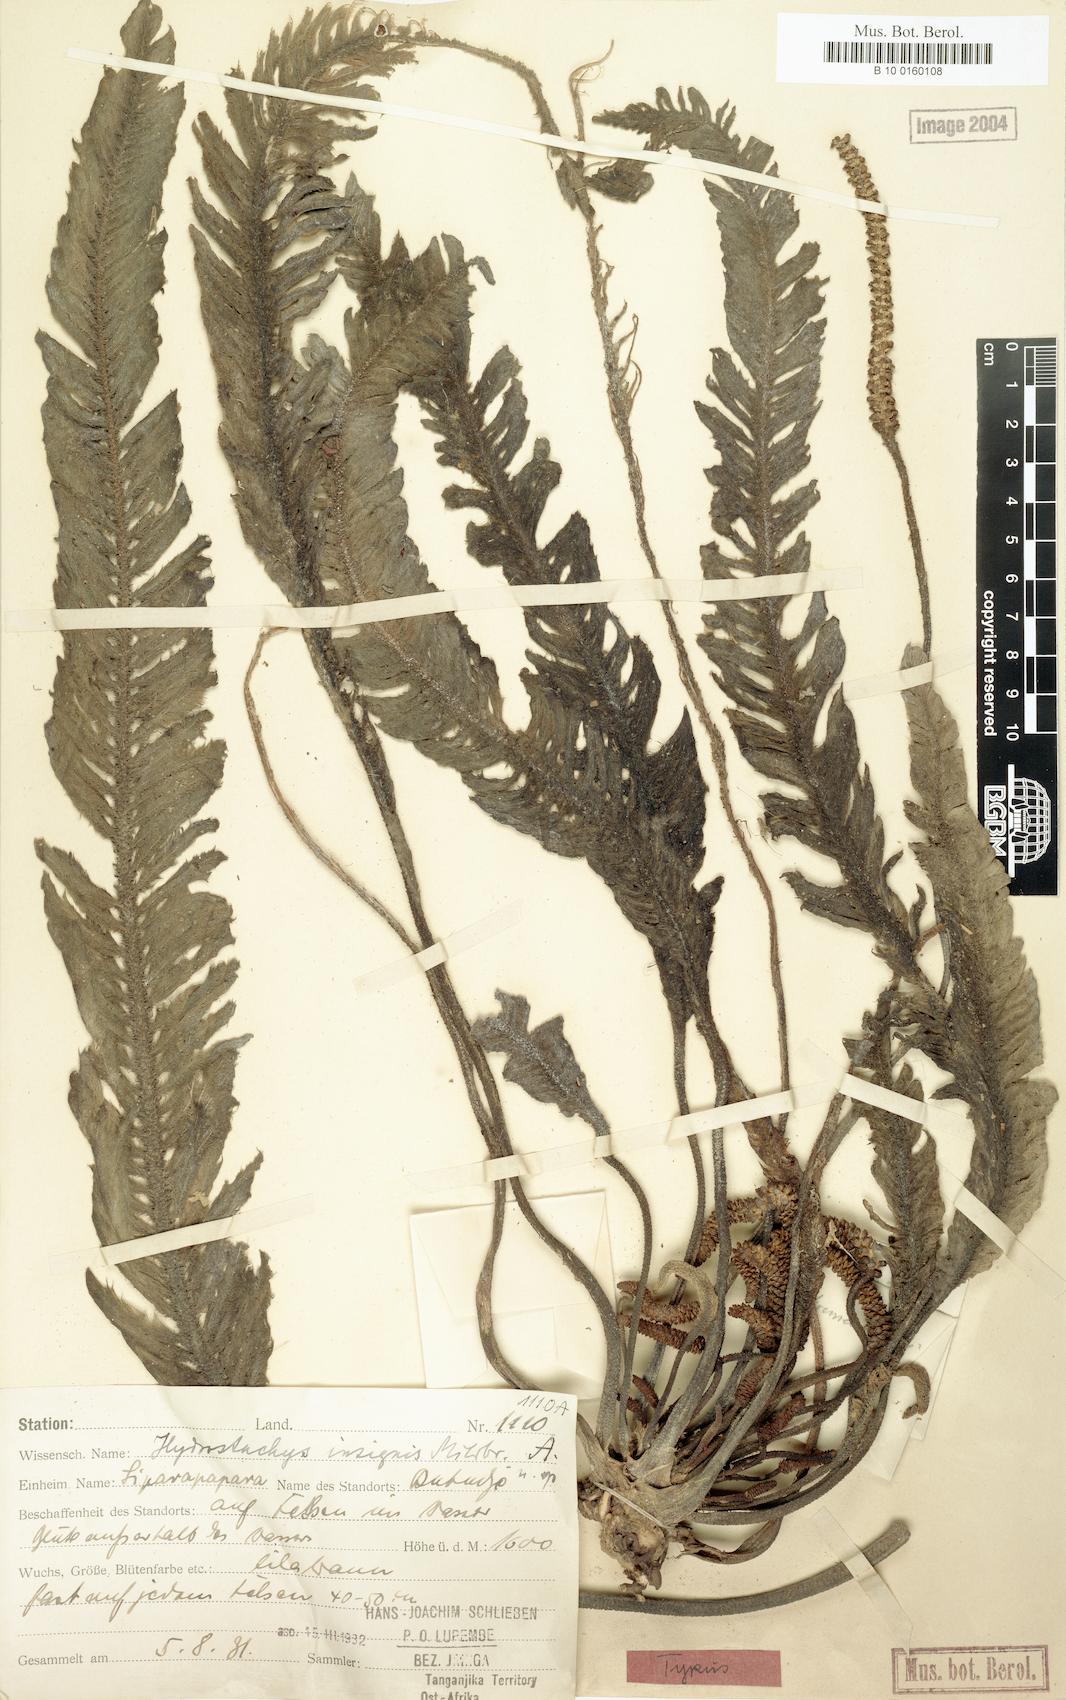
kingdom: Plantae
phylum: Tracheophyta
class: Magnoliopsida
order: Cornales
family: Hydrostachyaceae
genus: Hydrostachys
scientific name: Hydrostachys insignis
